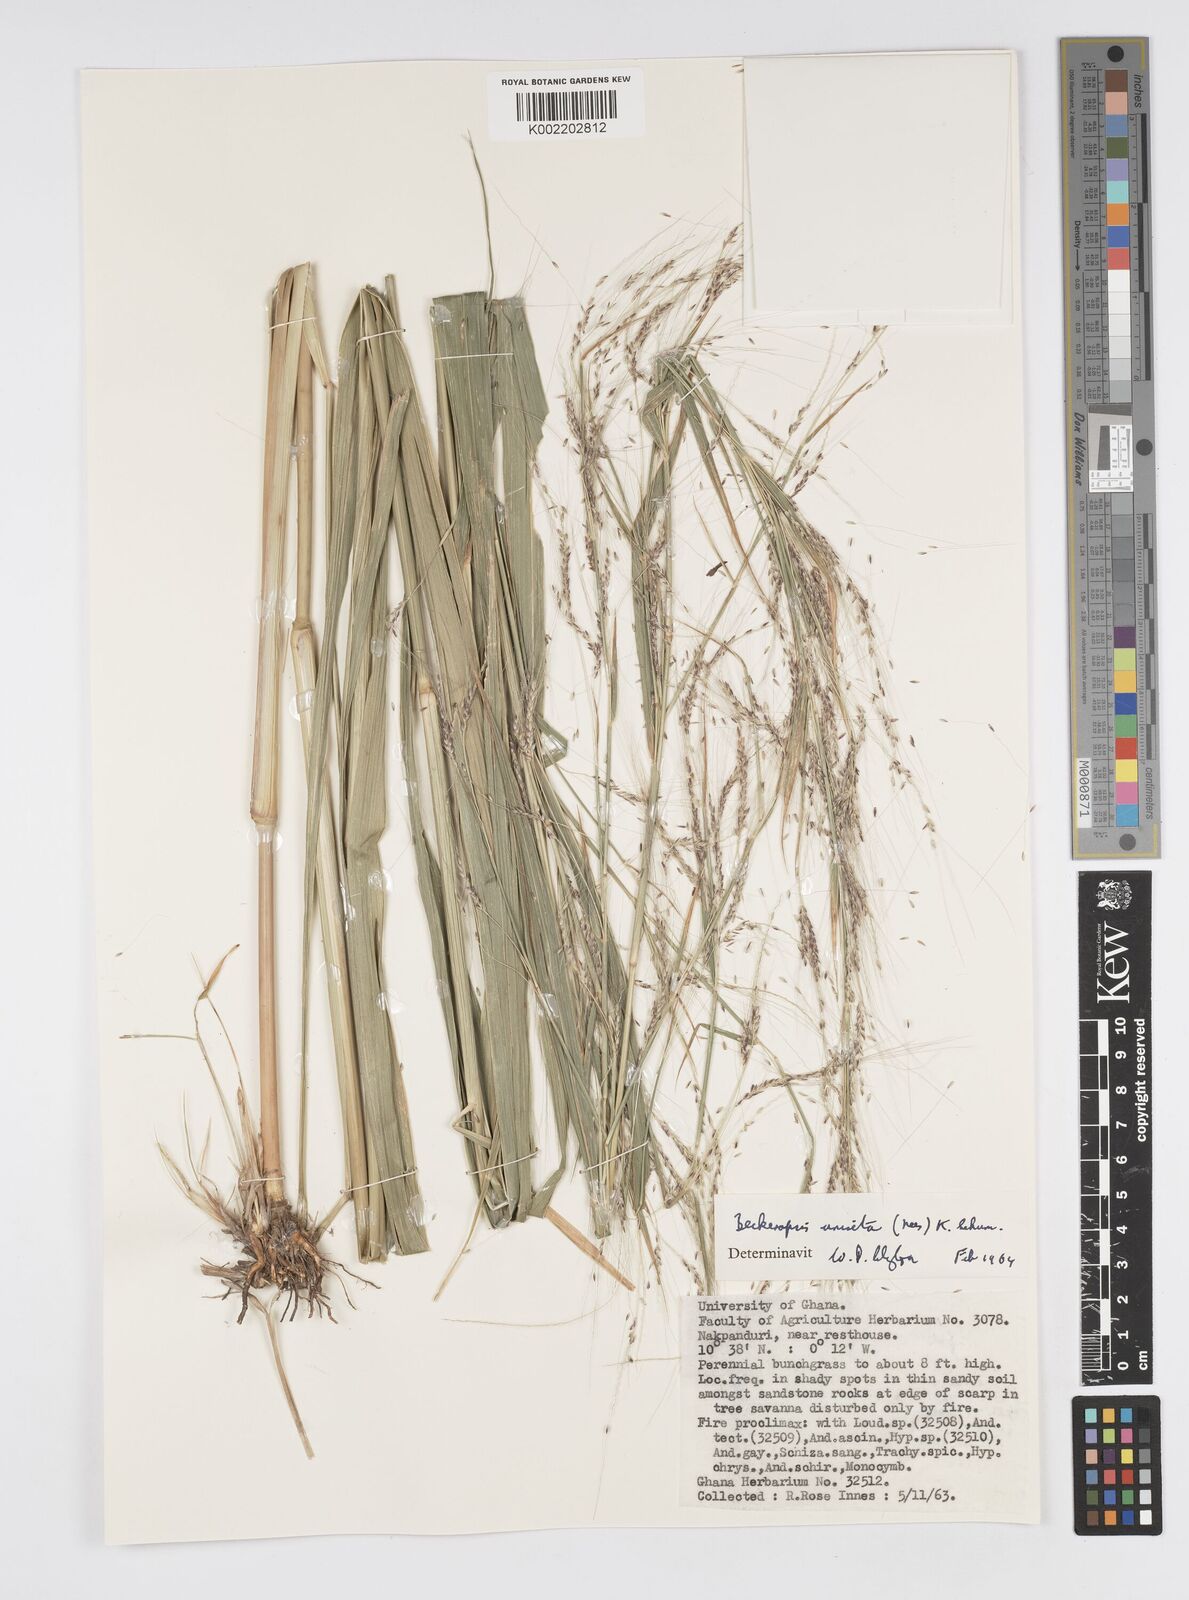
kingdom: Plantae
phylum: Tracheophyta
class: Liliopsida
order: Poales
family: Poaceae
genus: Cenchrus
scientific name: Cenchrus unisetus
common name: Natal grass
